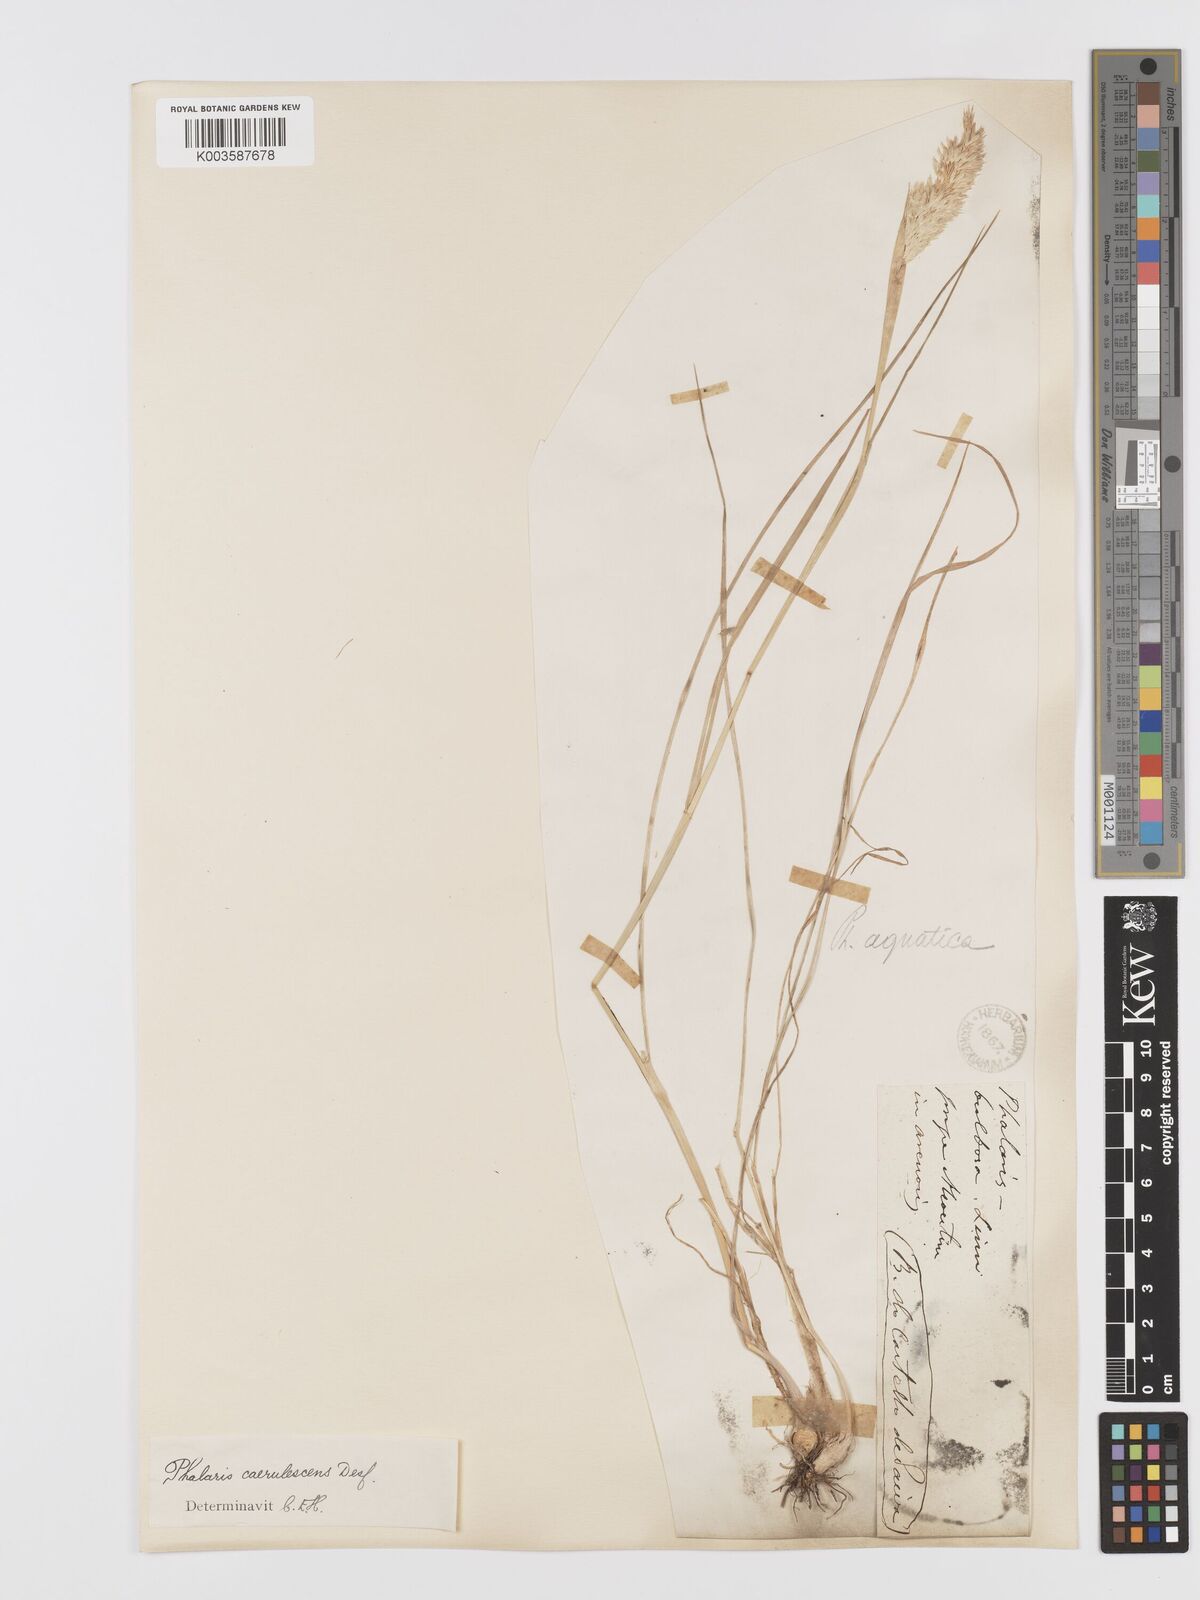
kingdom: Plantae
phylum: Tracheophyta
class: Liliopsida
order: Poales
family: Poaceae
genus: Phalaris
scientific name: Phalaris coerulescens
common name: Sunolgrass
